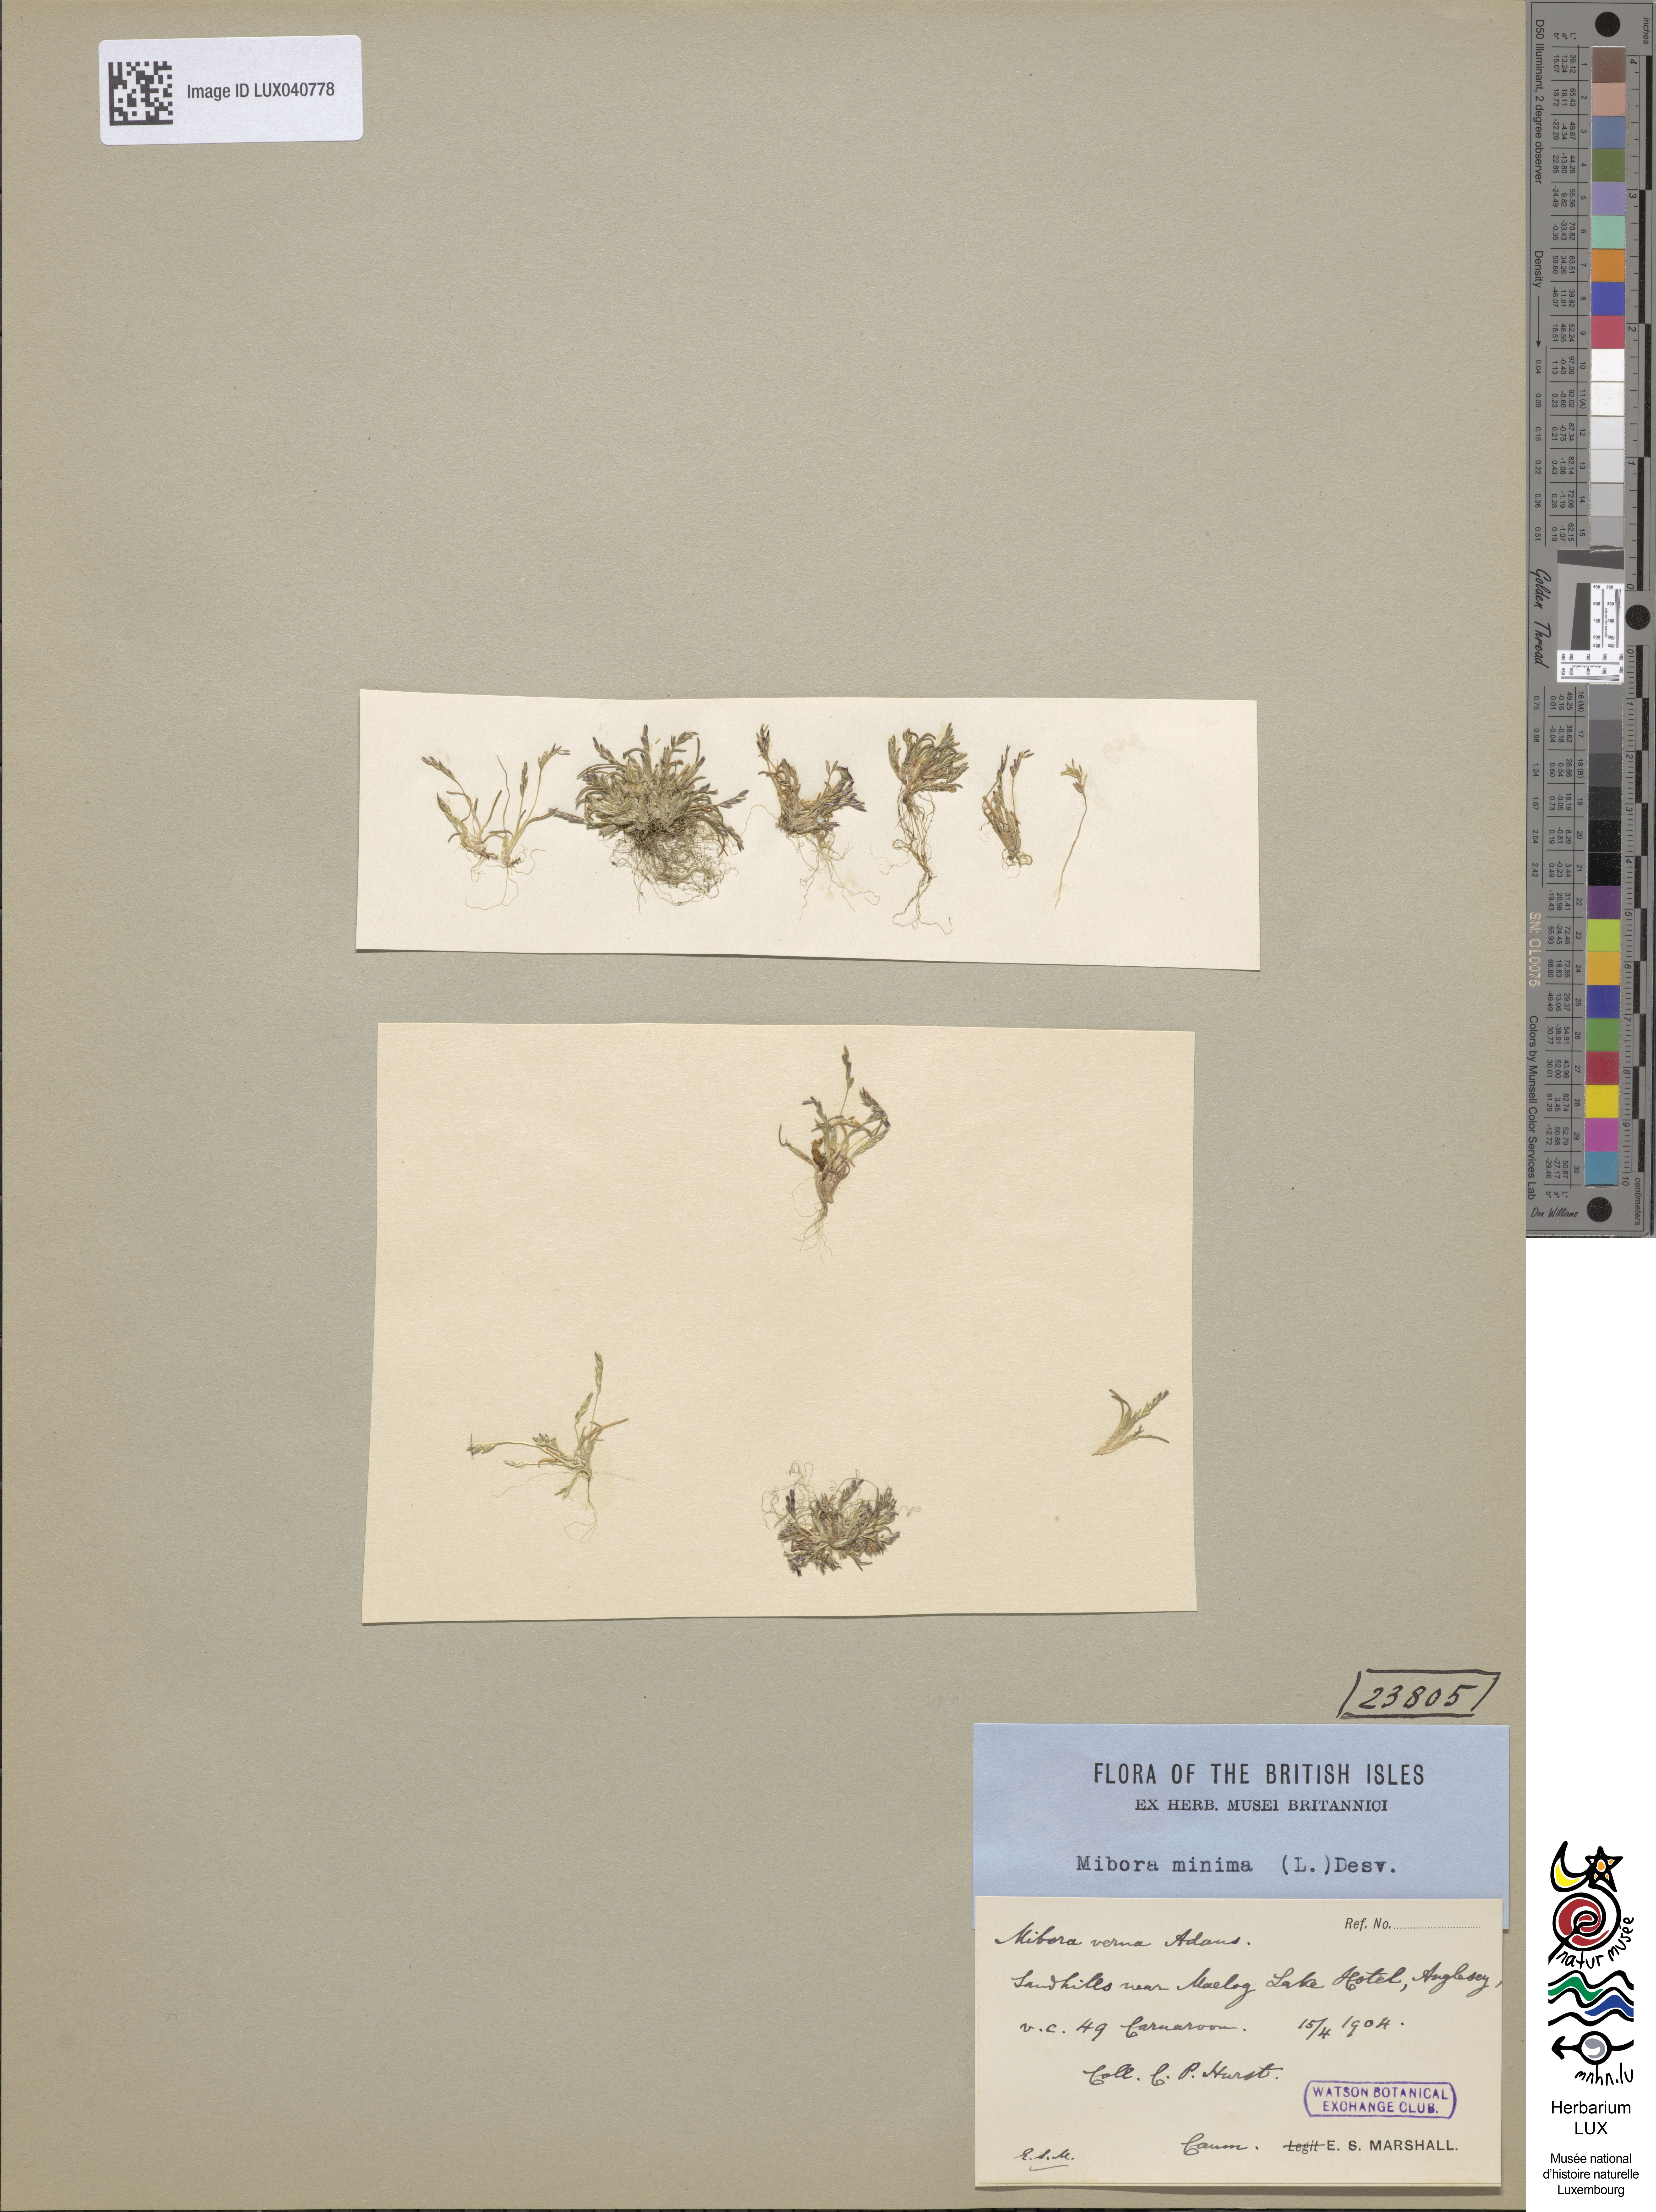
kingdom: Plantae
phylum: Tracheophyta
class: Liliopsida
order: Poales
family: Poaceae
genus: Mibora
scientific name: Mibora minima
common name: Early sand-grass
